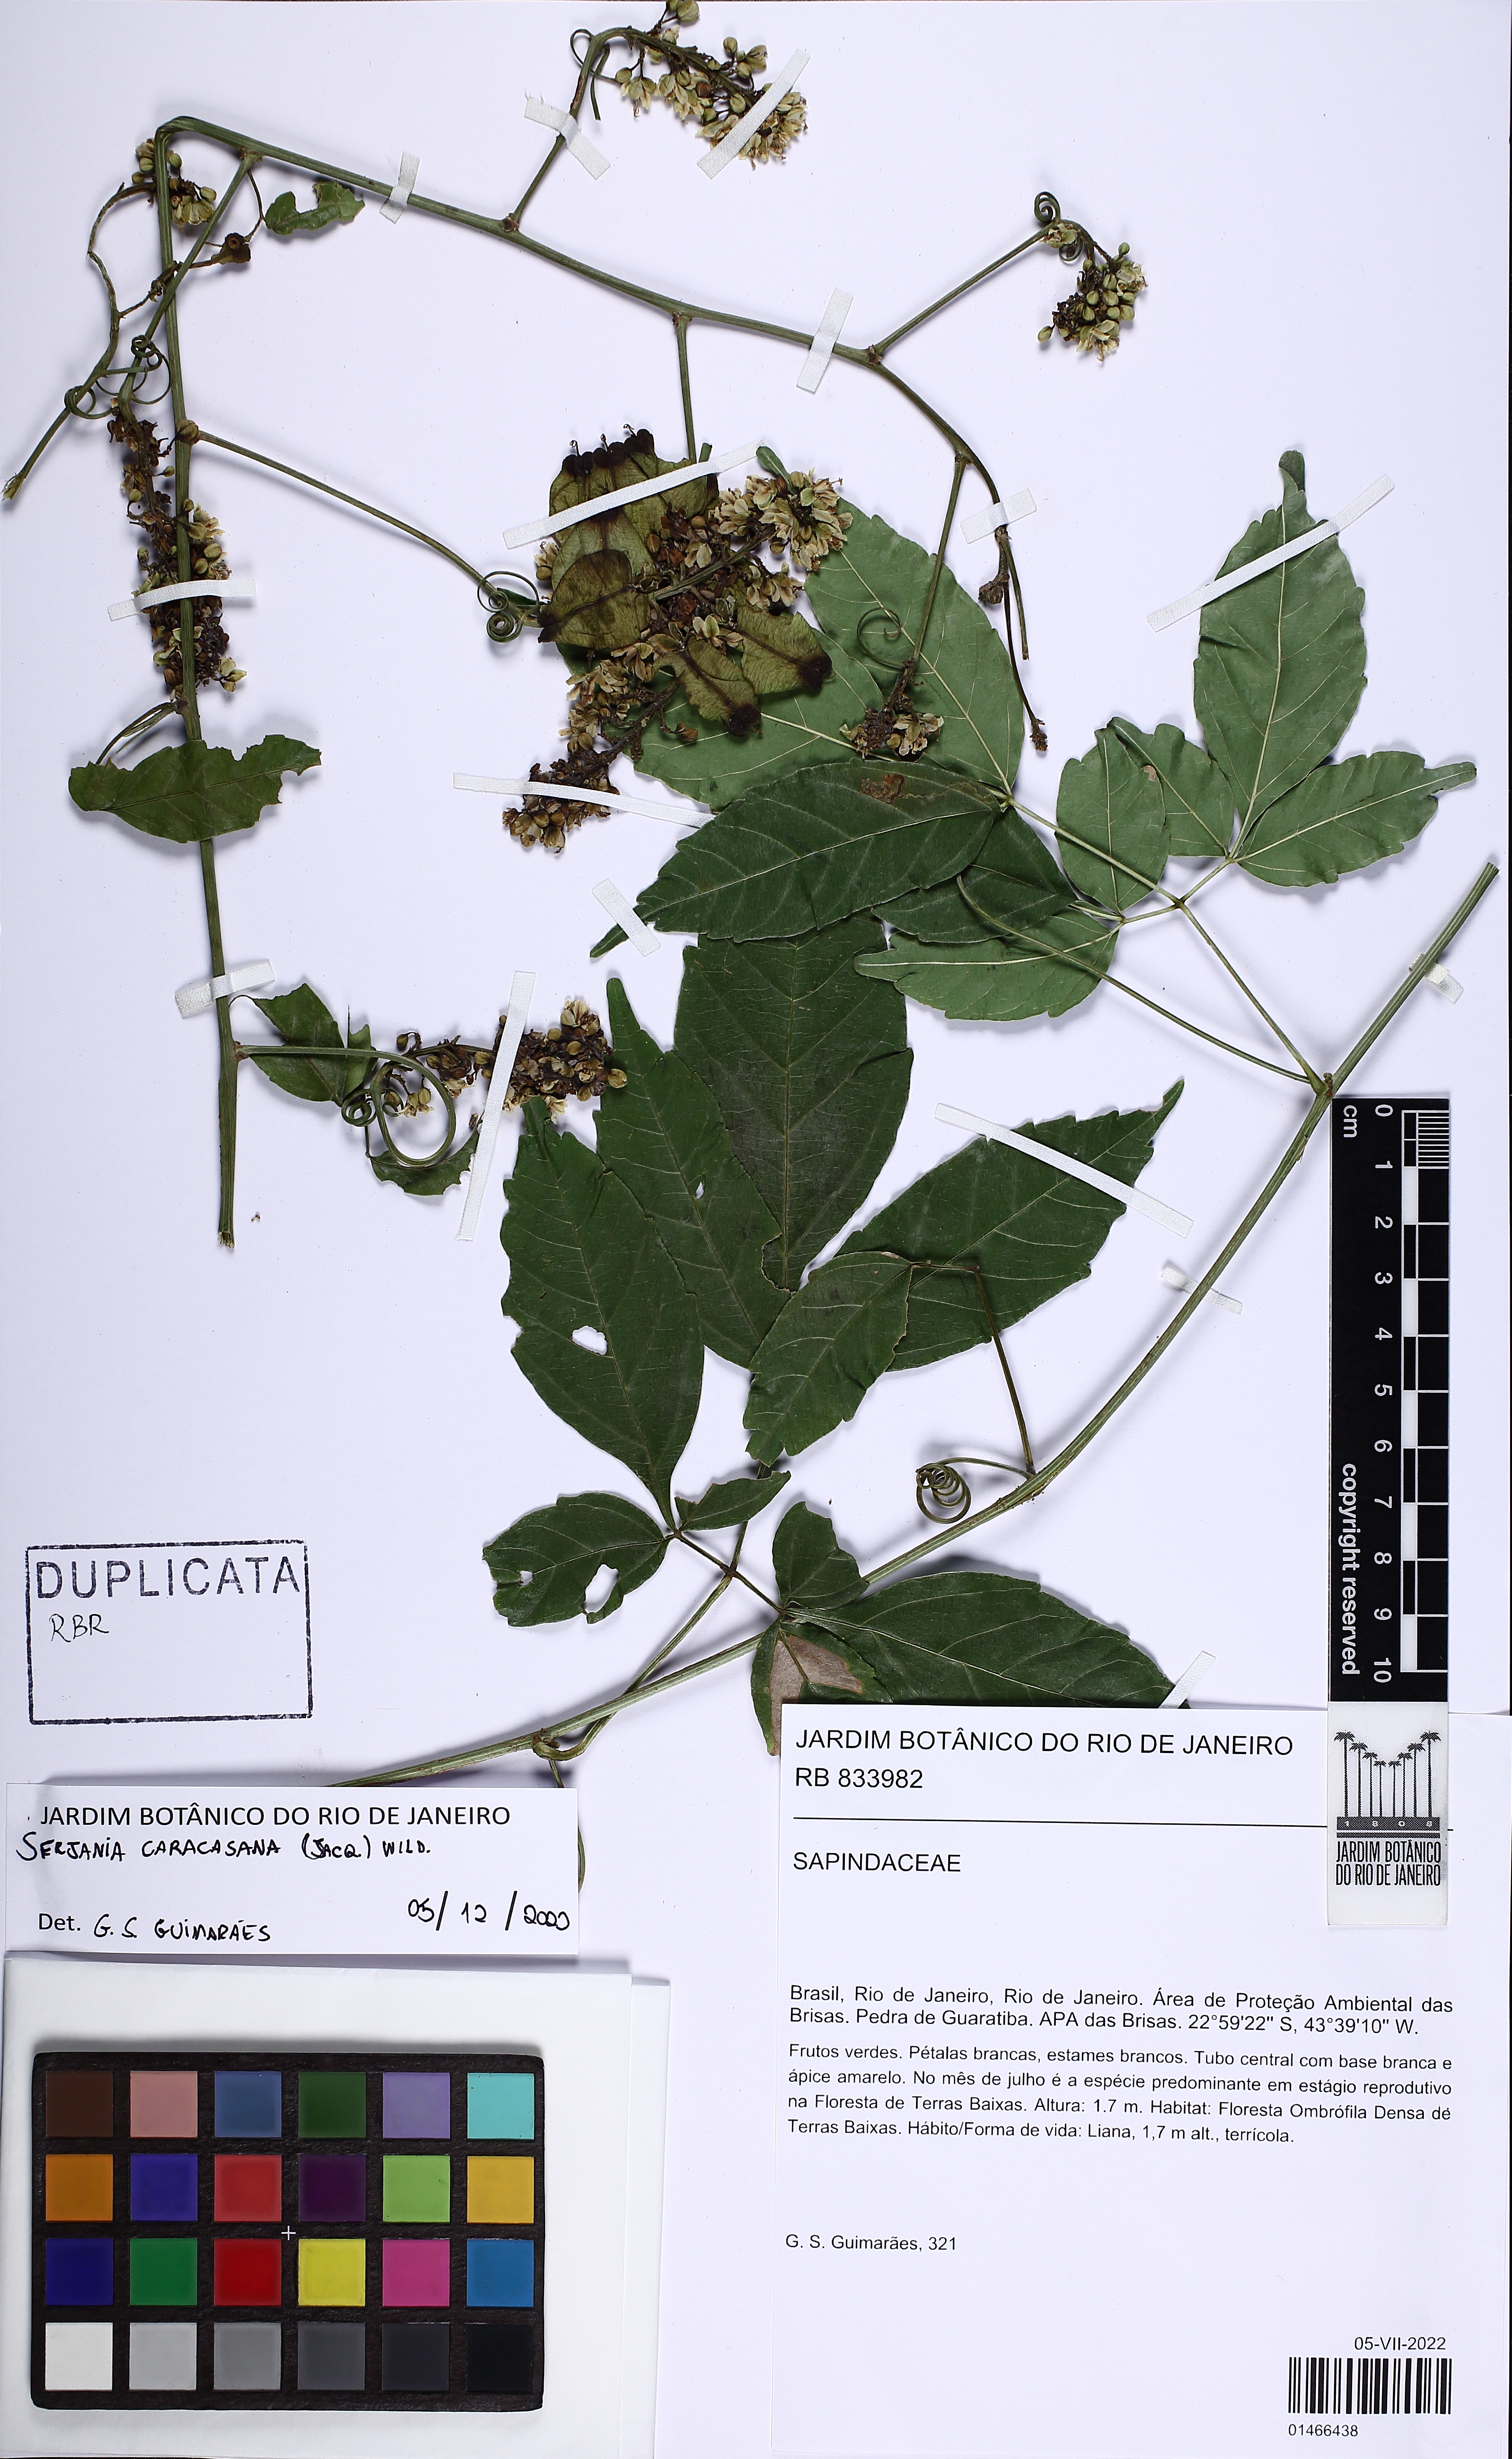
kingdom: Plantae
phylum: Tracheophyta
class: Magnoliopsida
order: Sapindales
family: Sapindaceae
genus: Serjania
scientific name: Serjania caracasana
